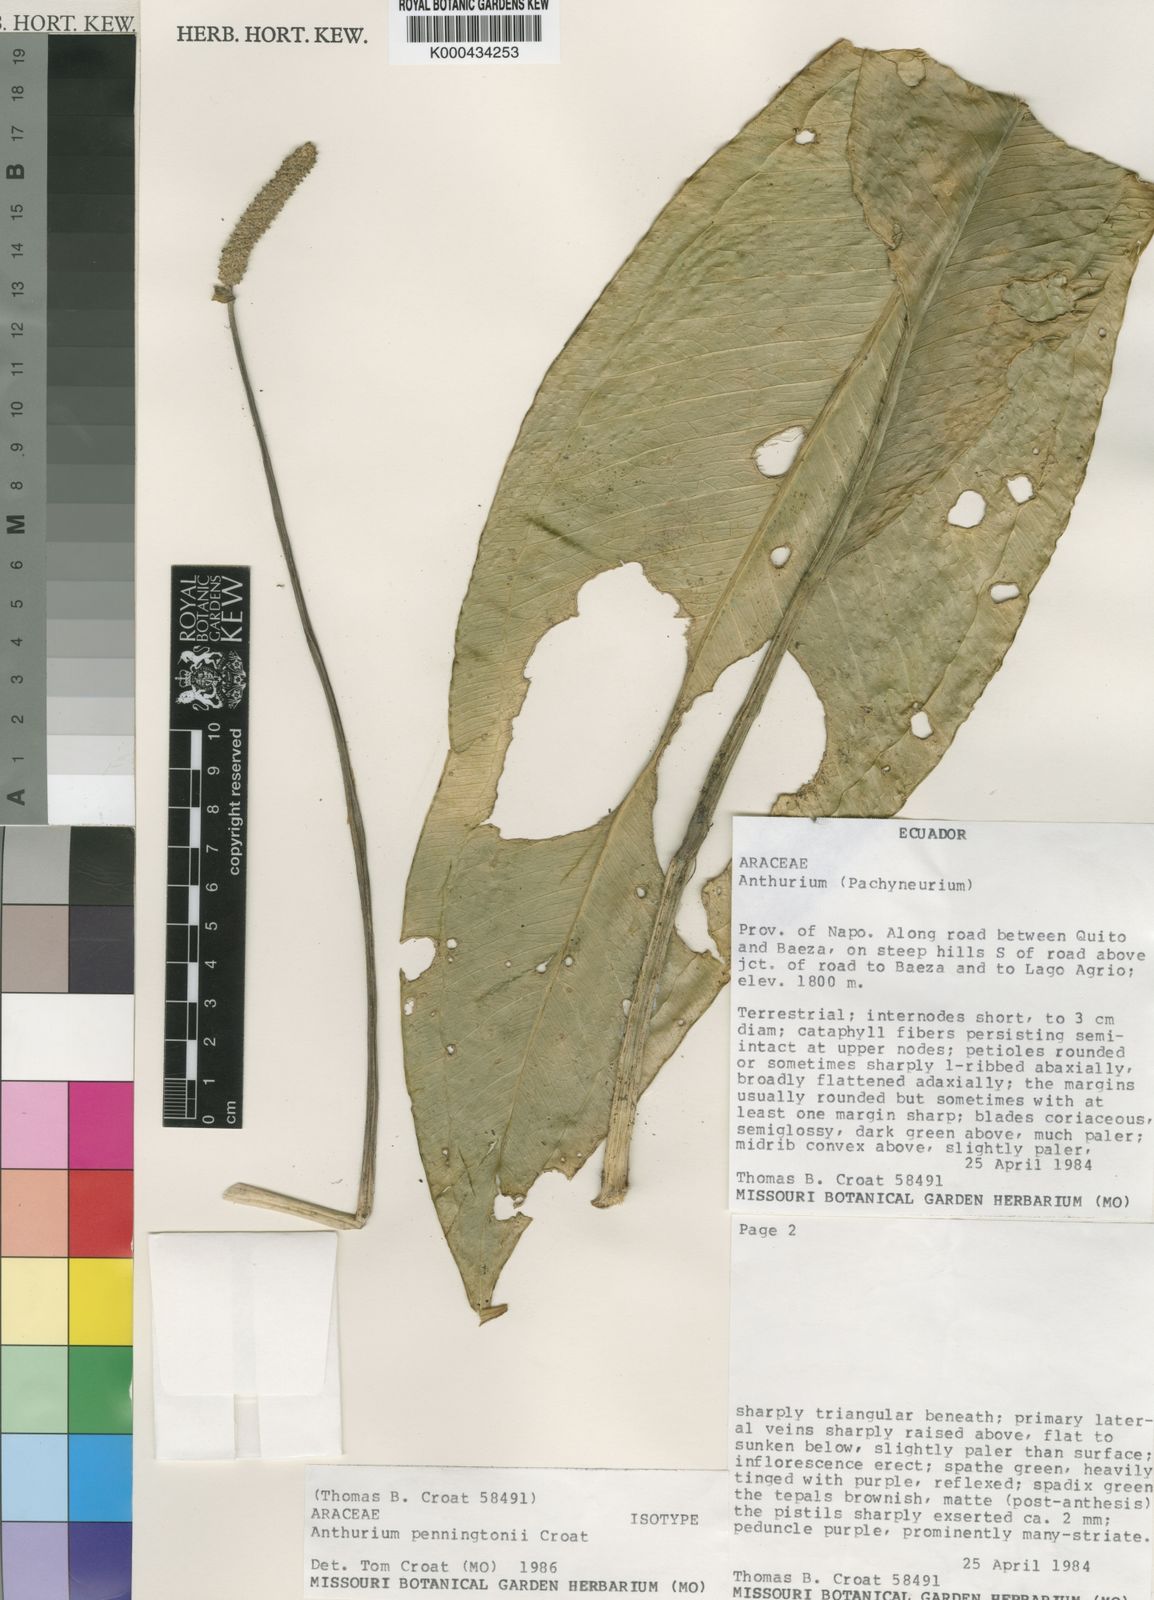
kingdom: Plantae
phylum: Tracheophyta
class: Liliopsida
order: Alismatales
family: Araceae
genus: Anthurium
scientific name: Anthurium penningtonii
